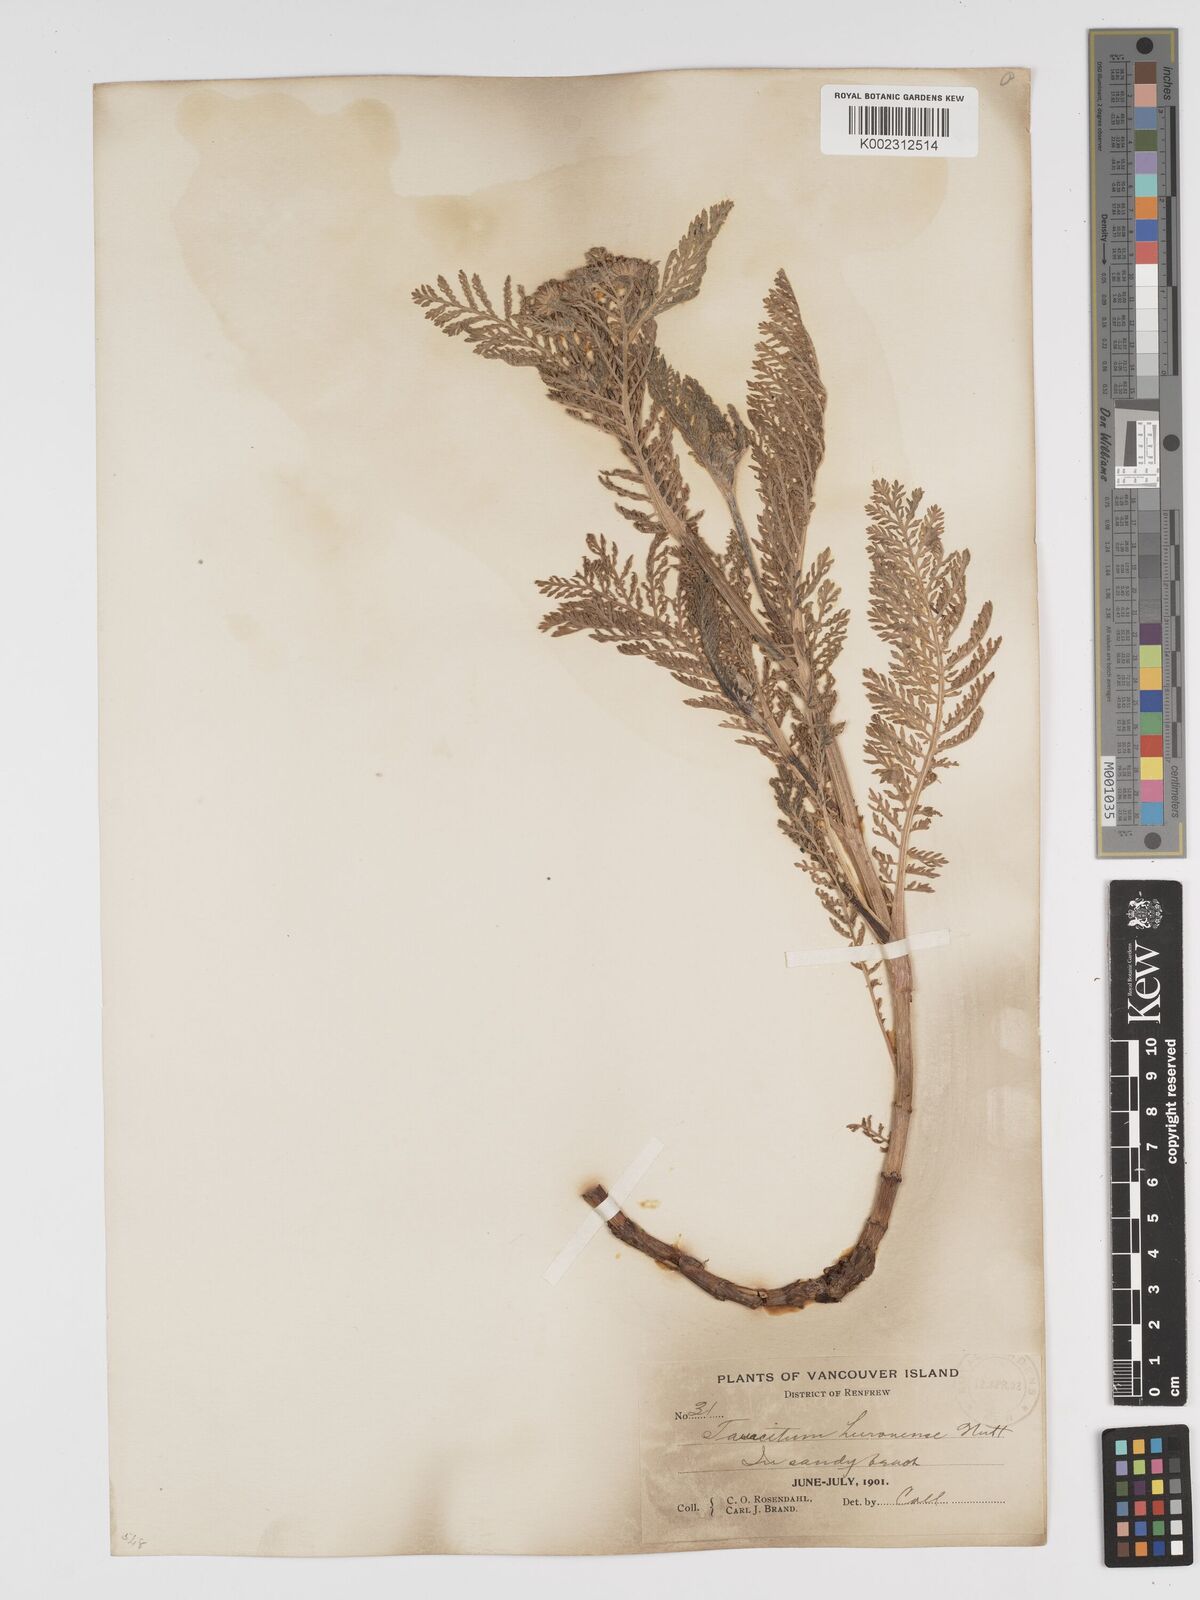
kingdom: Plantae
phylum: Tracheophyta
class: Magnoliopsida
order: Asterales
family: Asteraceae
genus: Tanacetum
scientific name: Tanacetum bipinnatum
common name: Dwarf tansy
